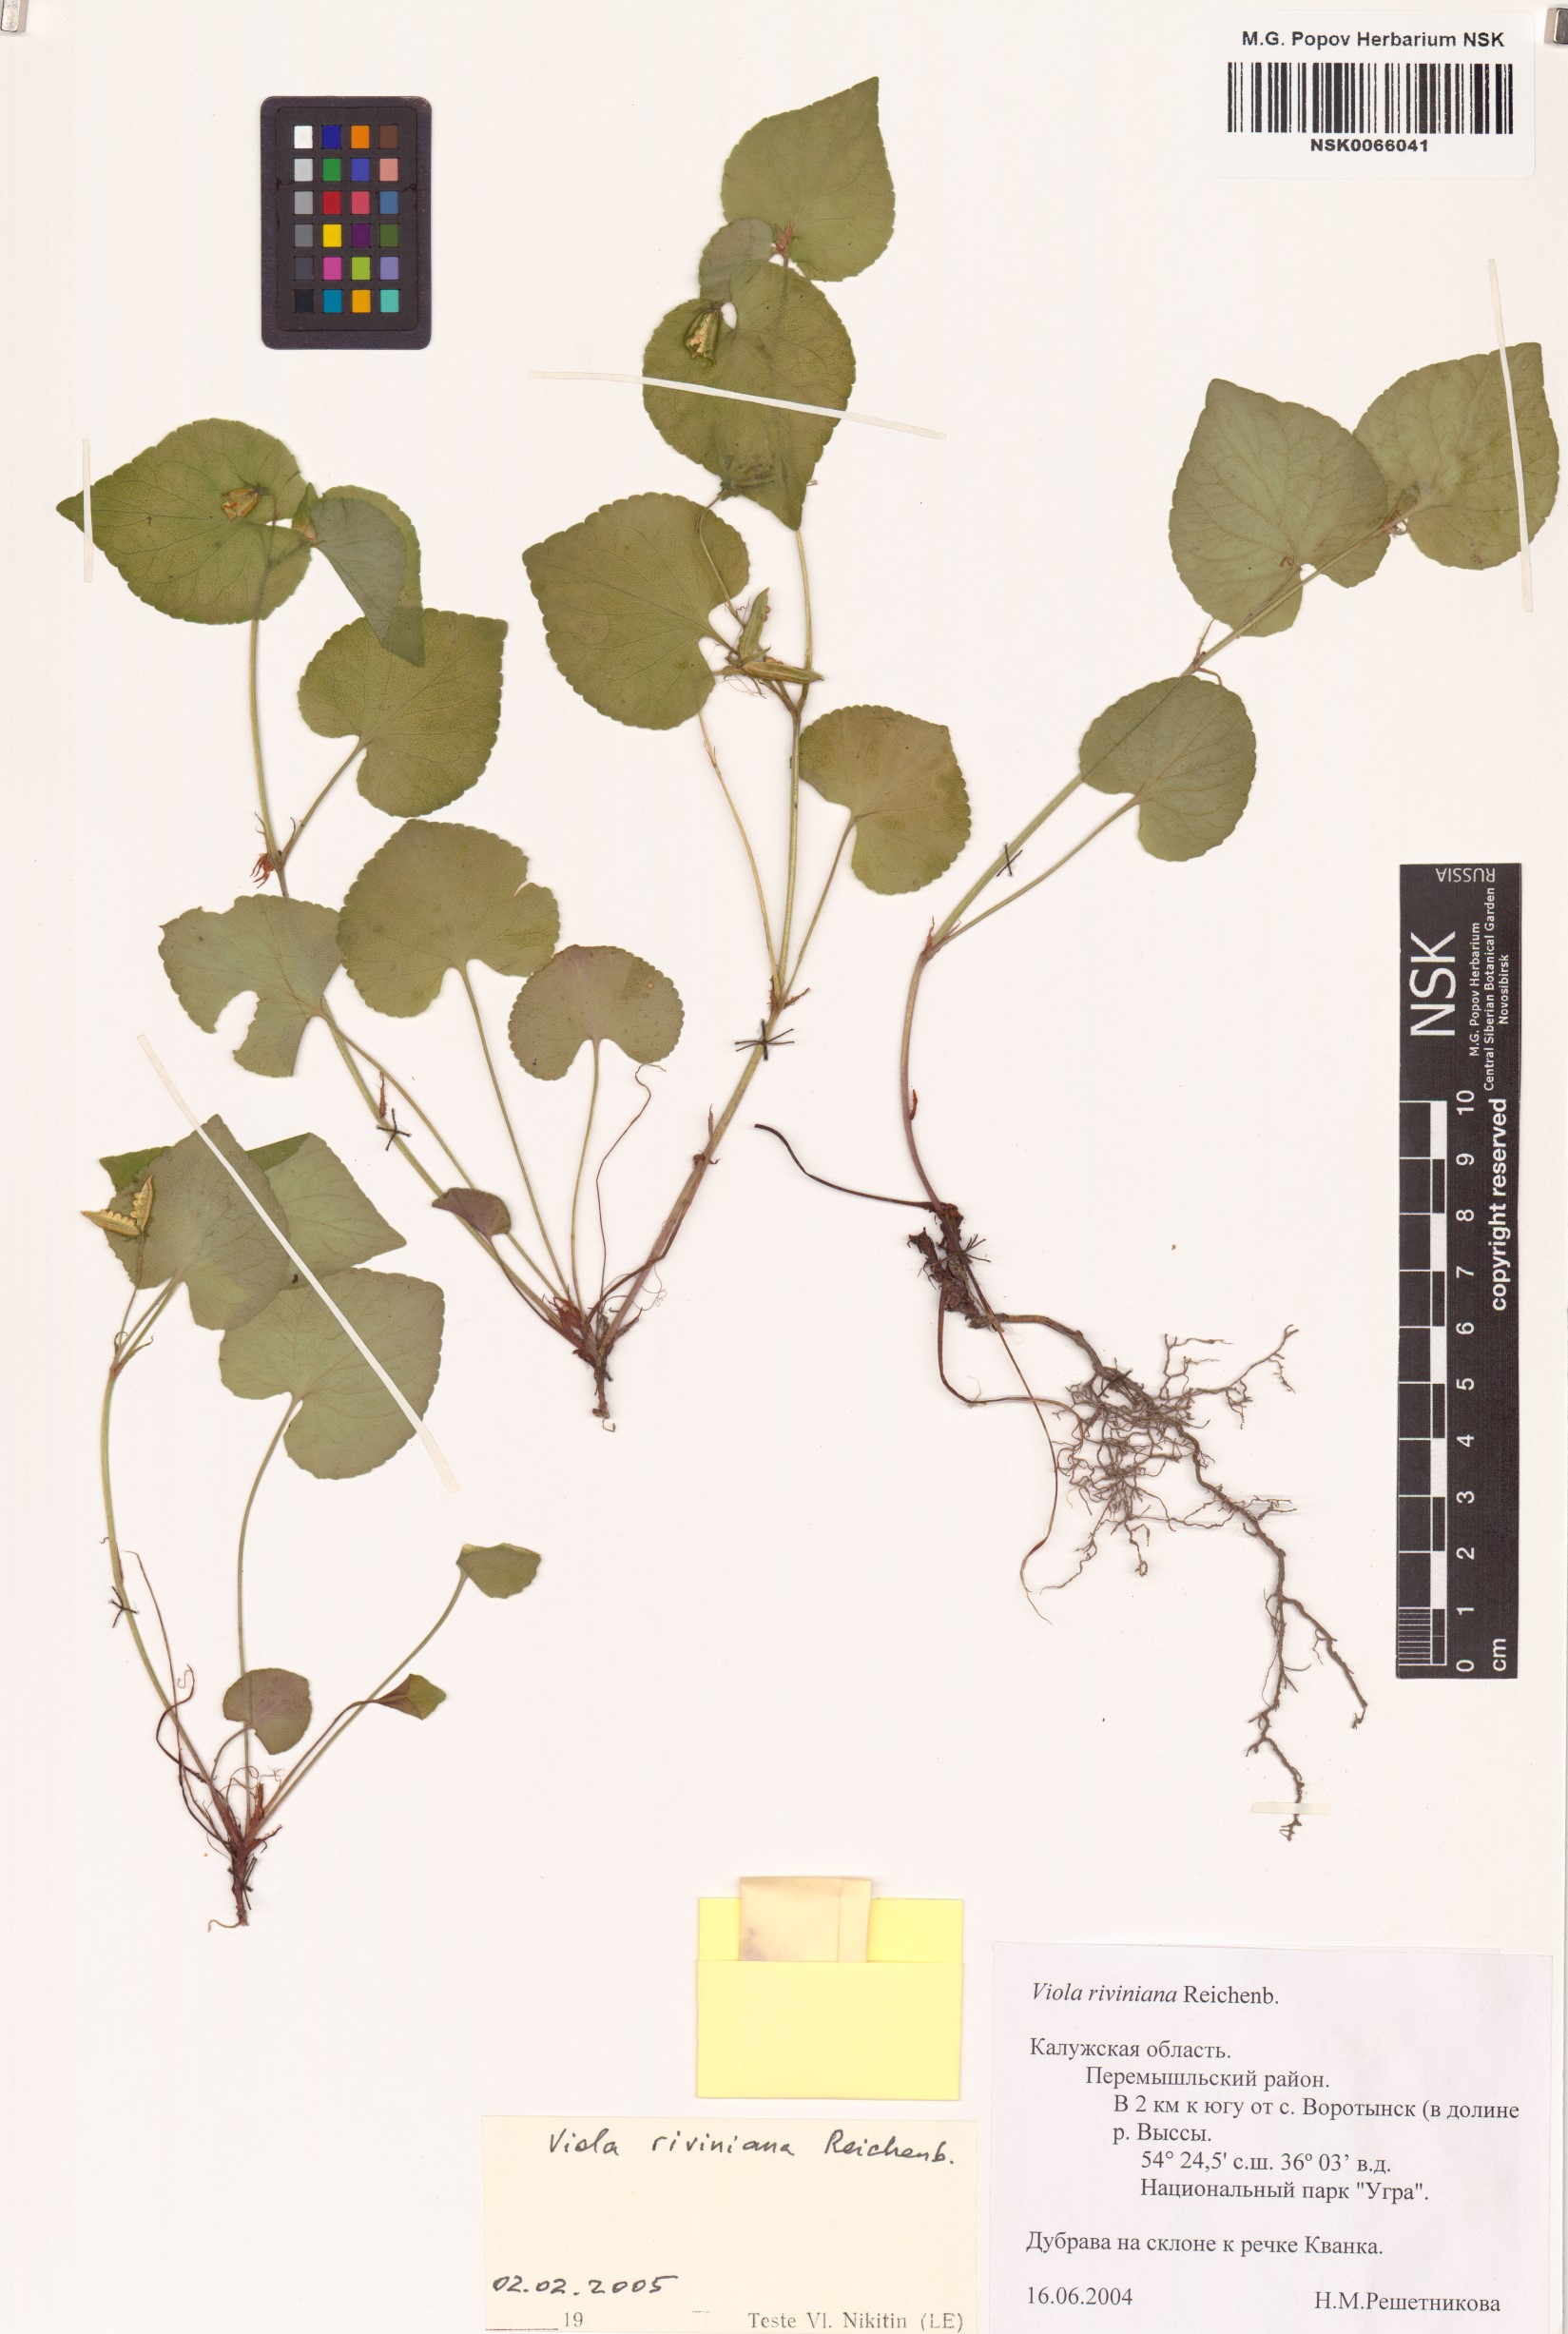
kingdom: Plantae
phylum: Tracheophyta
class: Magnoliopsida
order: Malpighiales
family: Violaceae
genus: Viola
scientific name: Viola riviniana
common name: Common dog-violet
